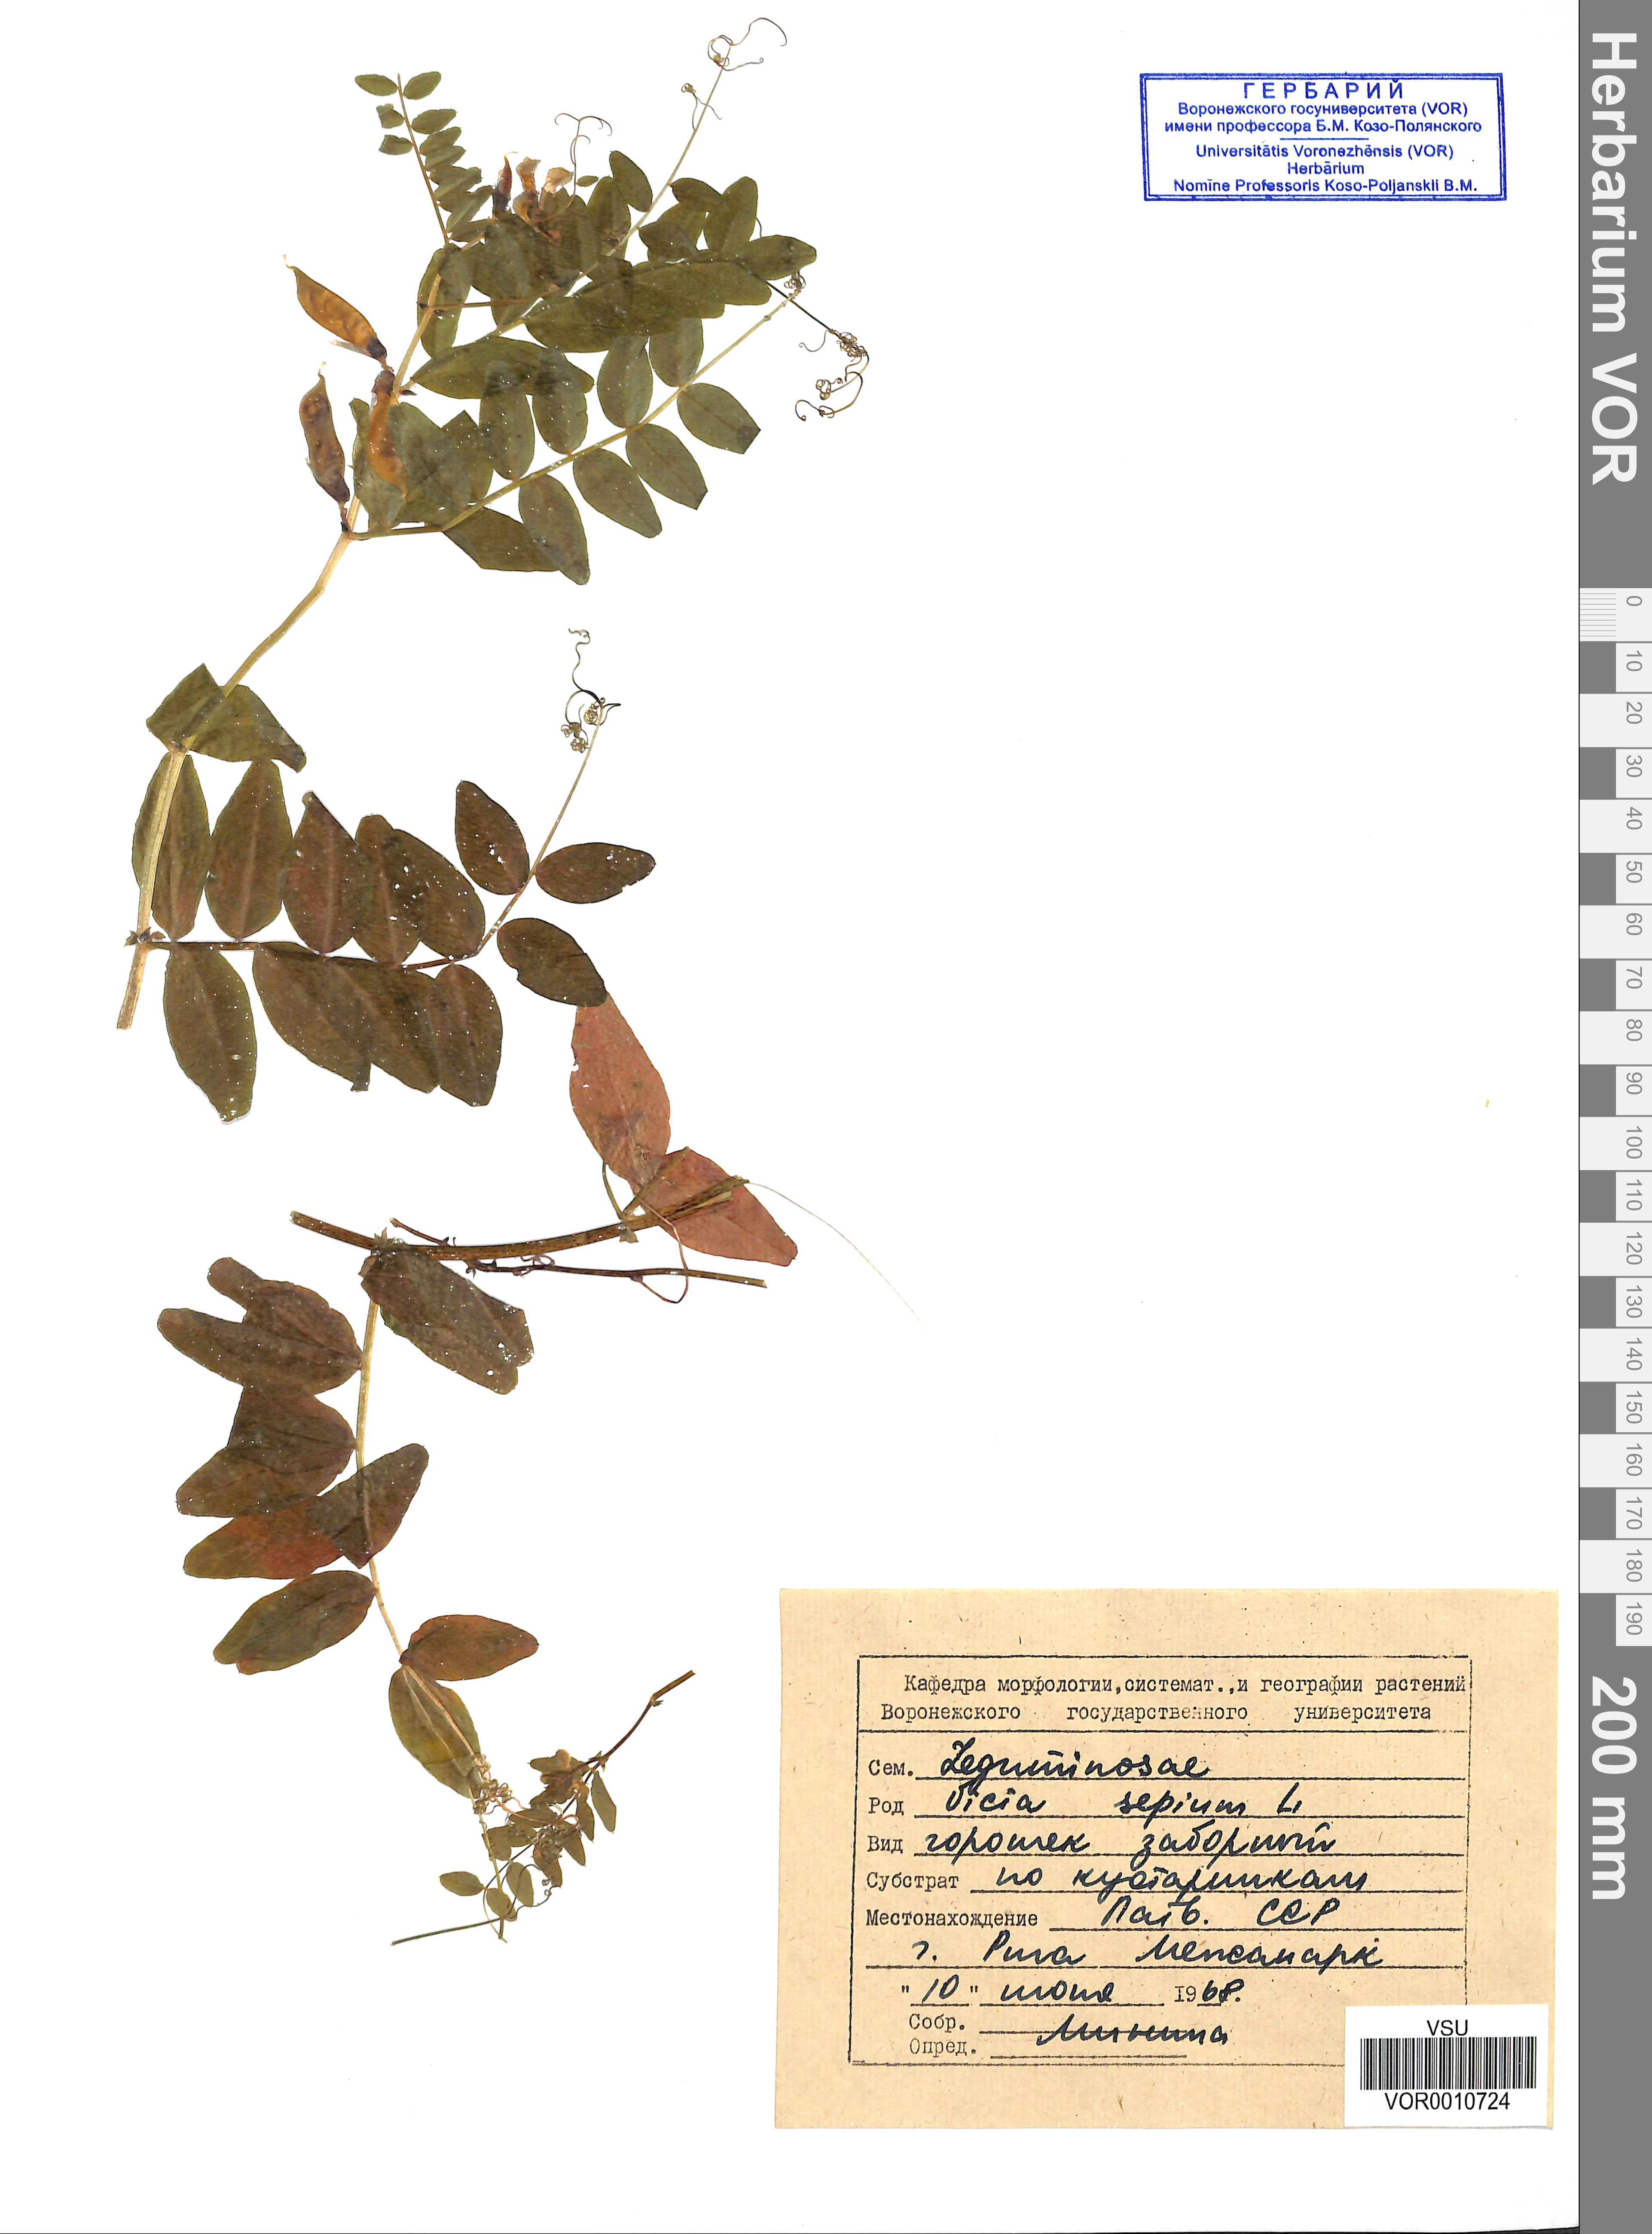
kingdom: Plantae
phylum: Tracheophyta
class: Magnoliopsida
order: Fabales
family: Fabaceae
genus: Vicia
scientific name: Vicia sepium
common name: Bush vetch
